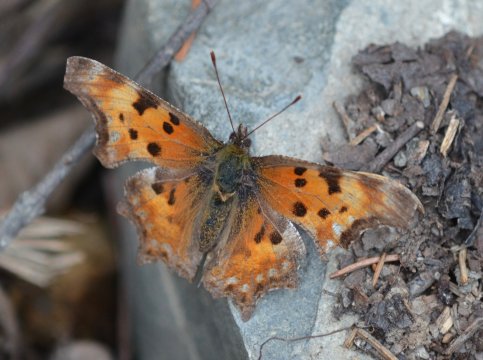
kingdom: Animalia
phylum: Arthropoda
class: Insecta
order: Lepidoptera
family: Nymphalidae
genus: Polygonia
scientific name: Polygonia faunus
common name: Green Comma
